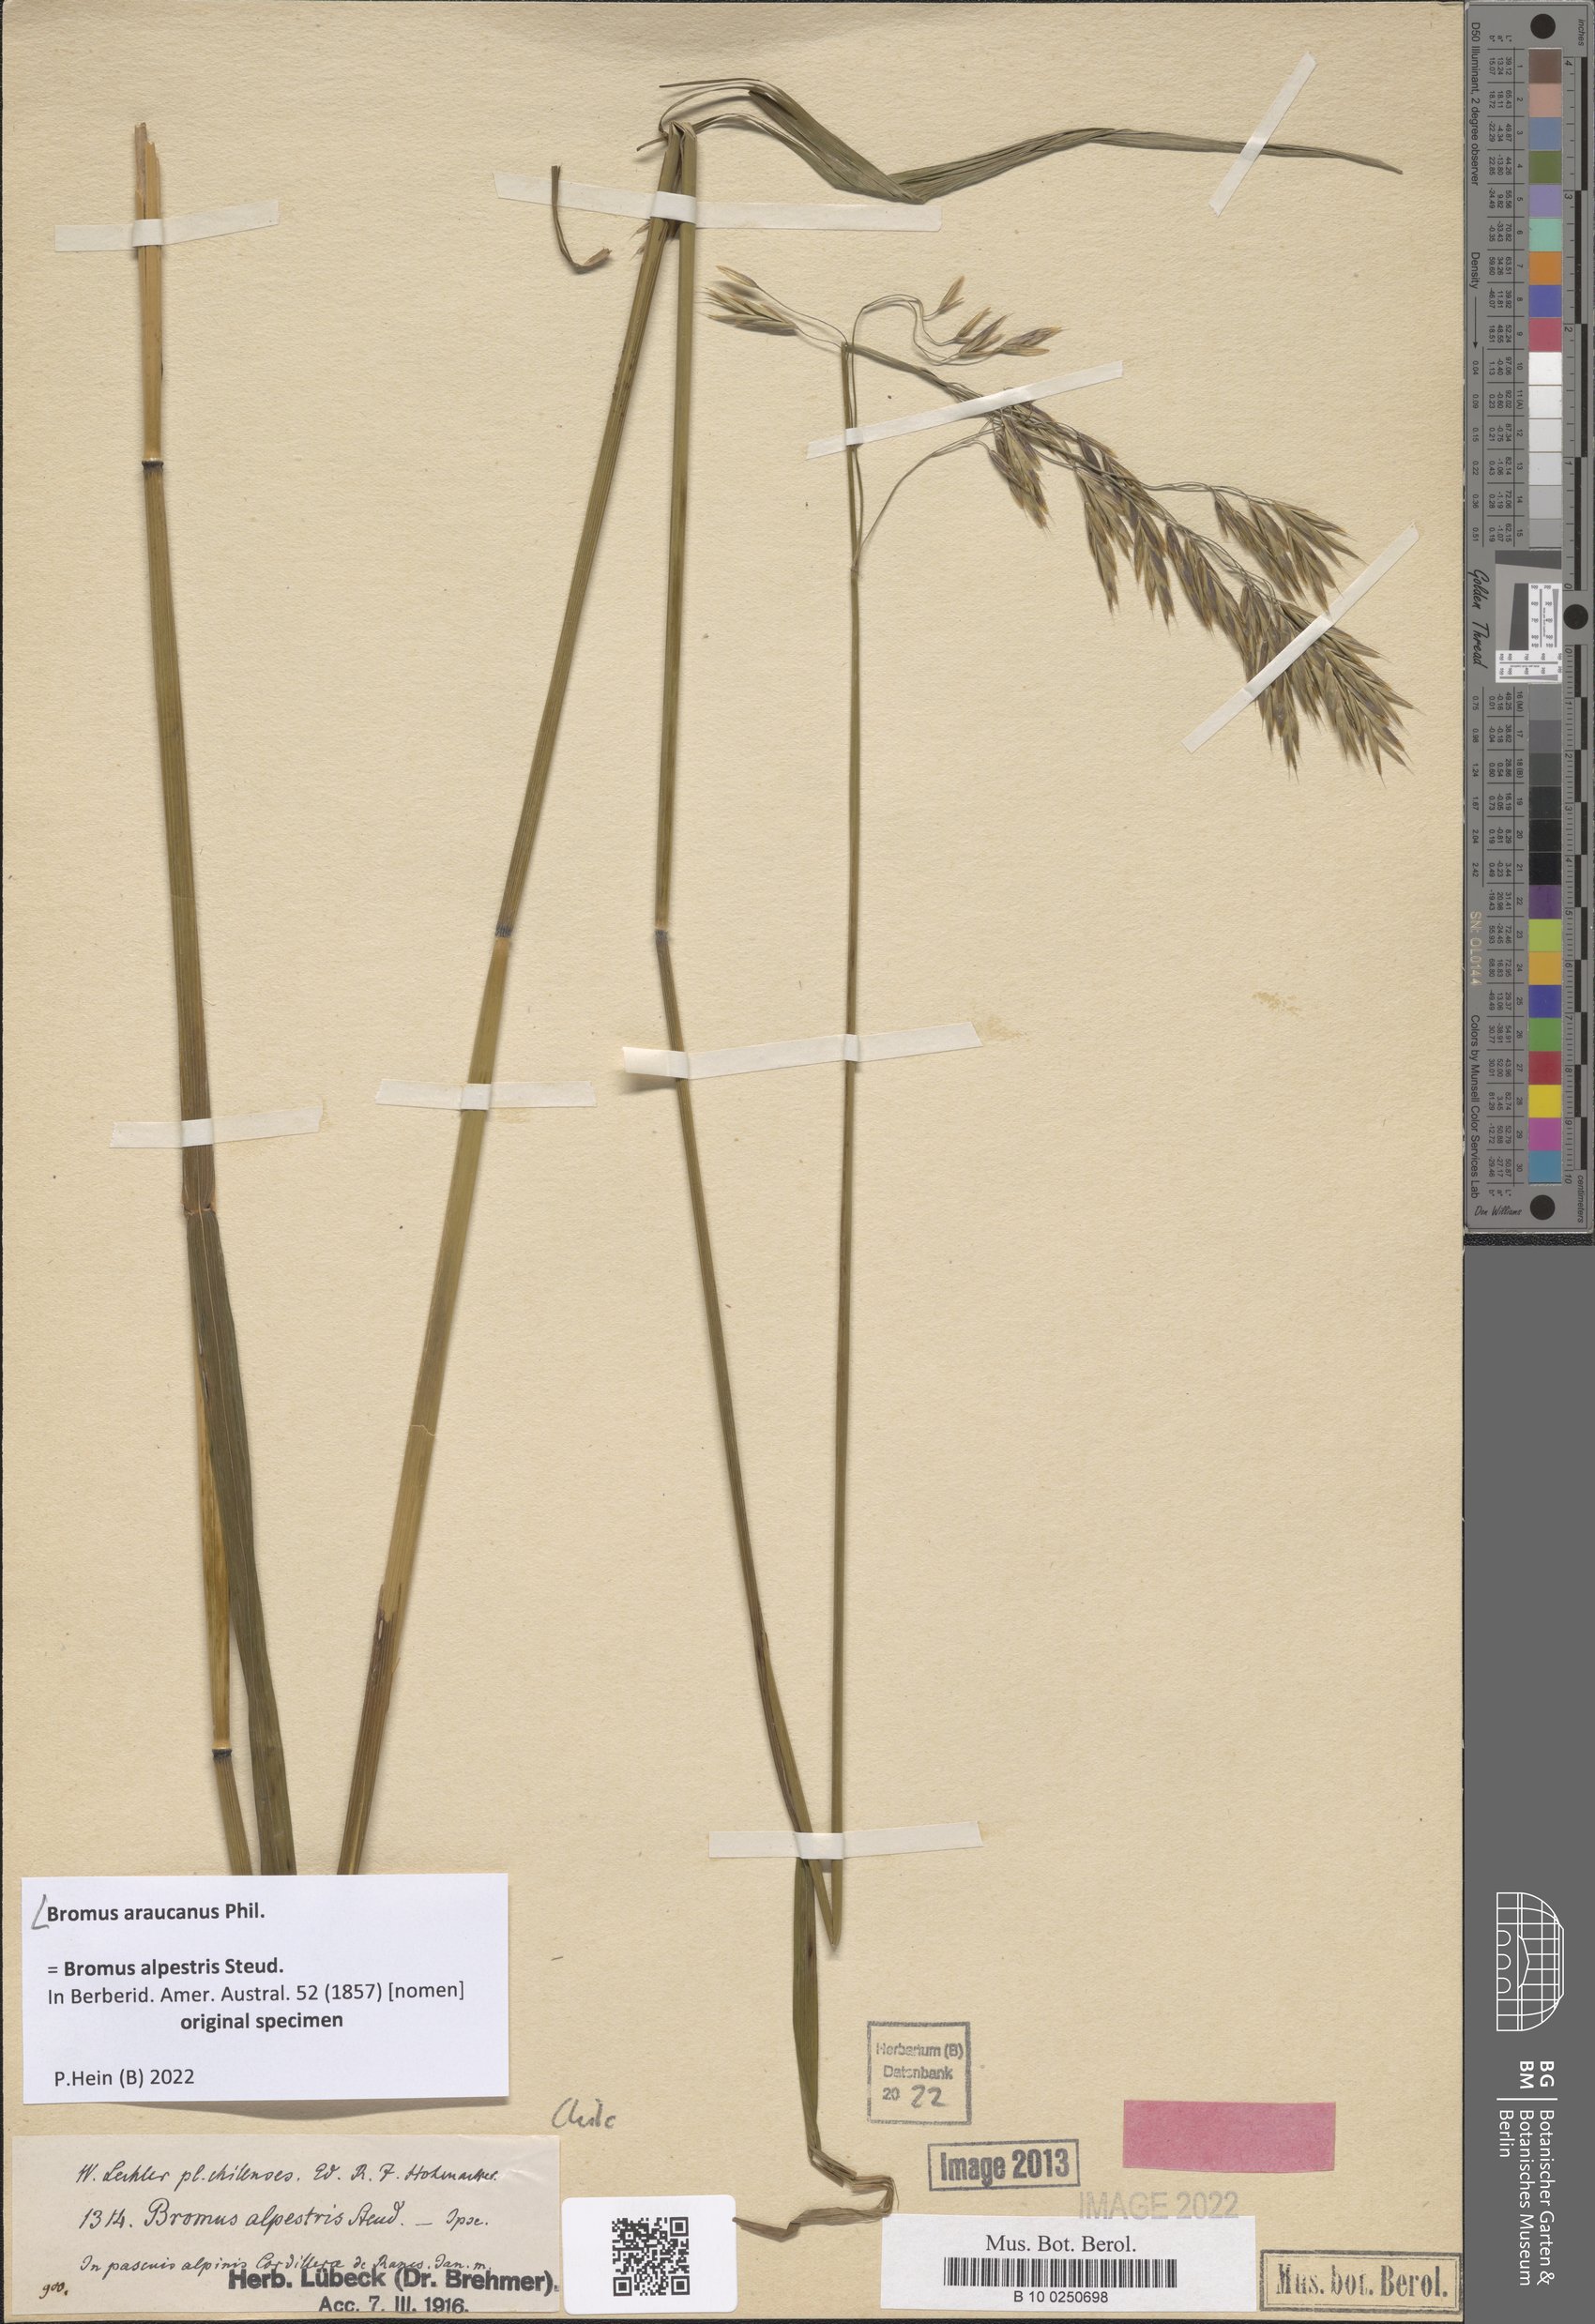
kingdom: Plantae
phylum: Tracheophyta
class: Liliopsida
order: Poales
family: Poaceae
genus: Bromus
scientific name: Bromus araucanus
